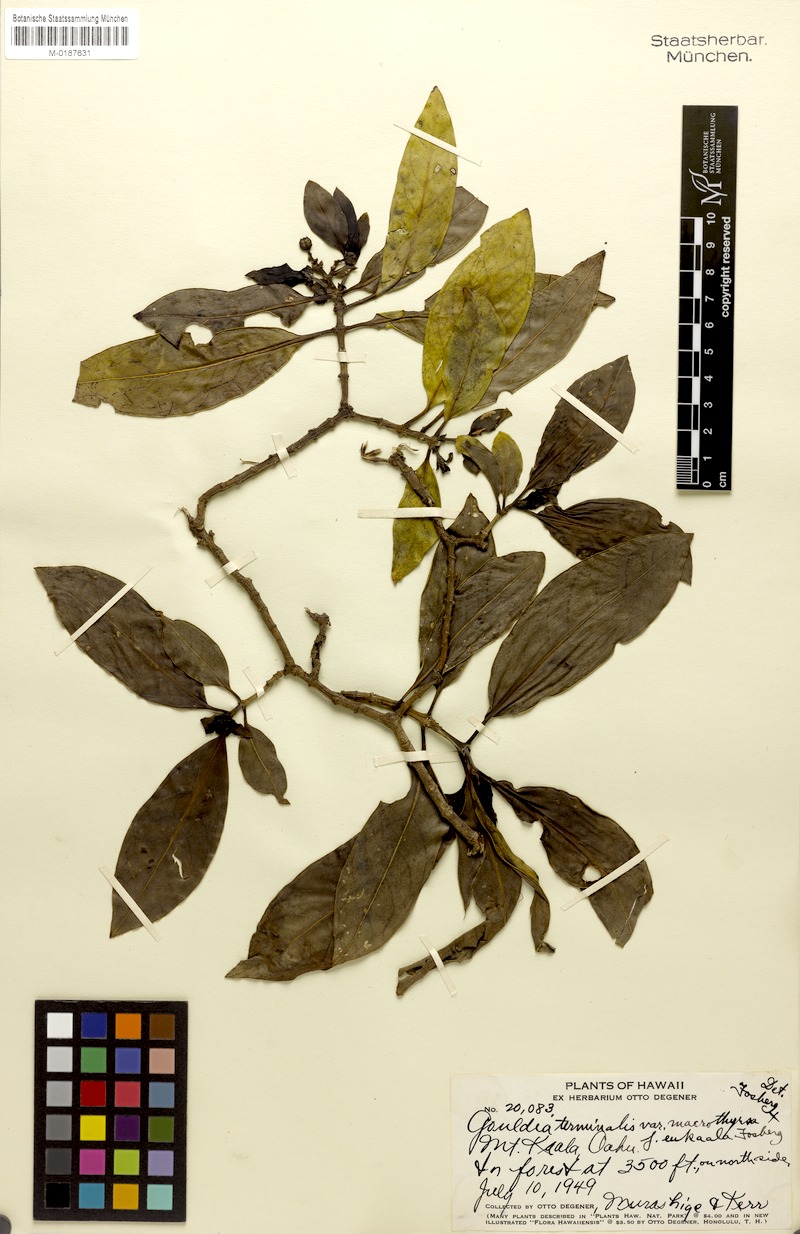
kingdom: Plantae
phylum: Tracheophyta
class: Magnoliopsida
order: Gentianales
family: Rubiaceae
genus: Kadua
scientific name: Kadua affinis
